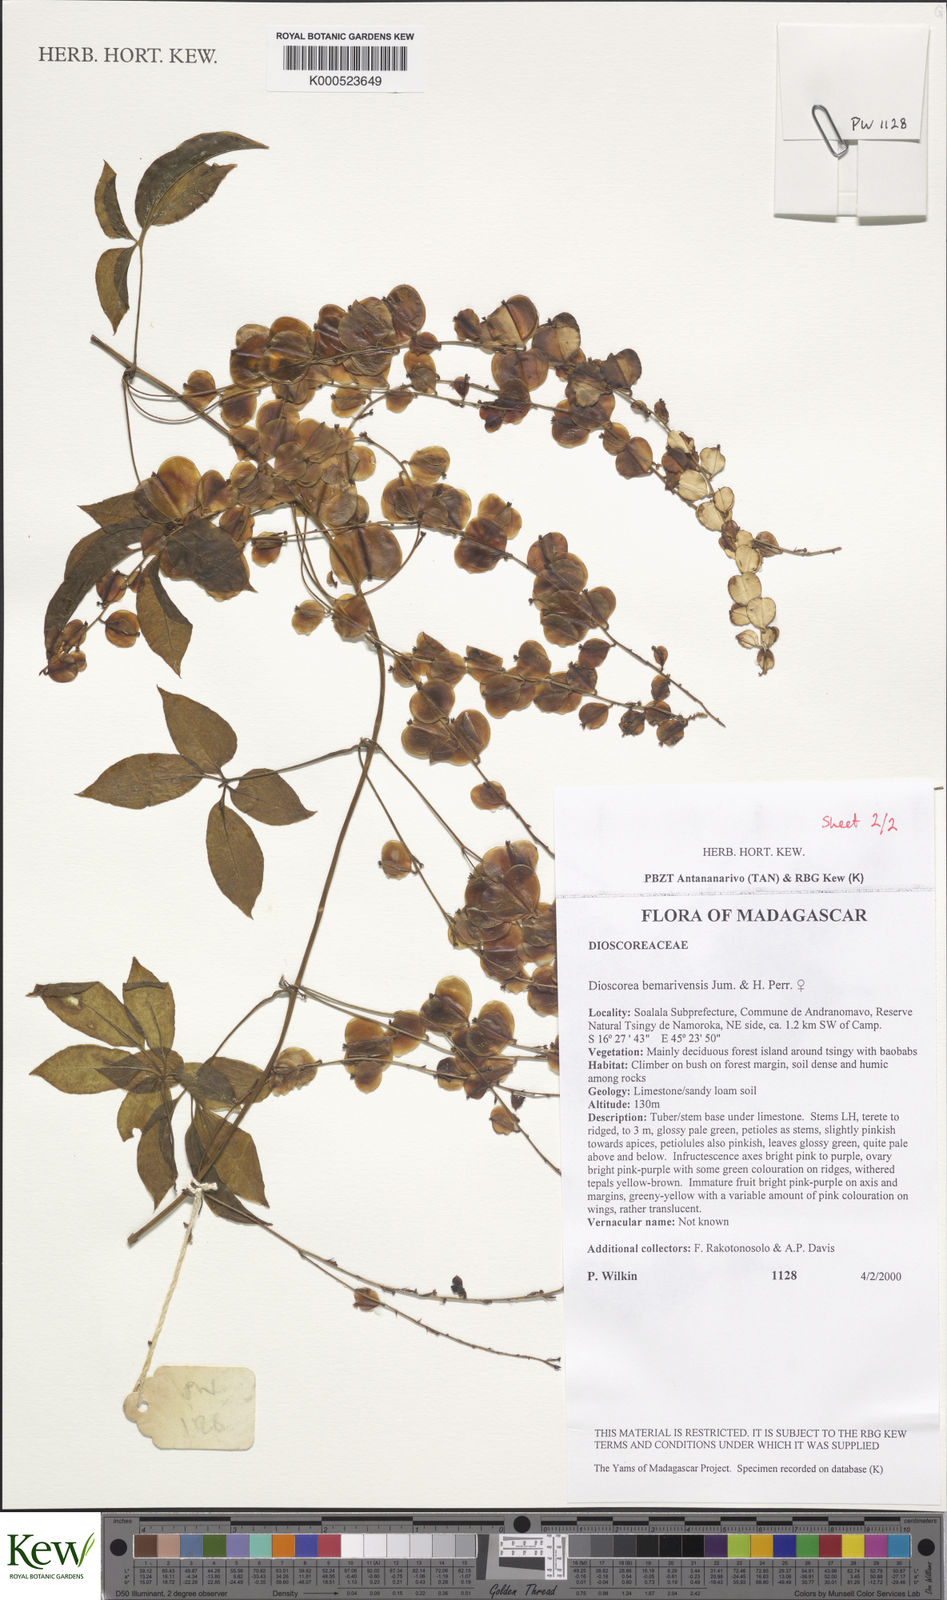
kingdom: Plantae
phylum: Tracheophyta
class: Liliopsida
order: Dioscoreales
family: Dioscoreaceae
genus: Dioscorea
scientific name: Dioscorea bemarivensis
